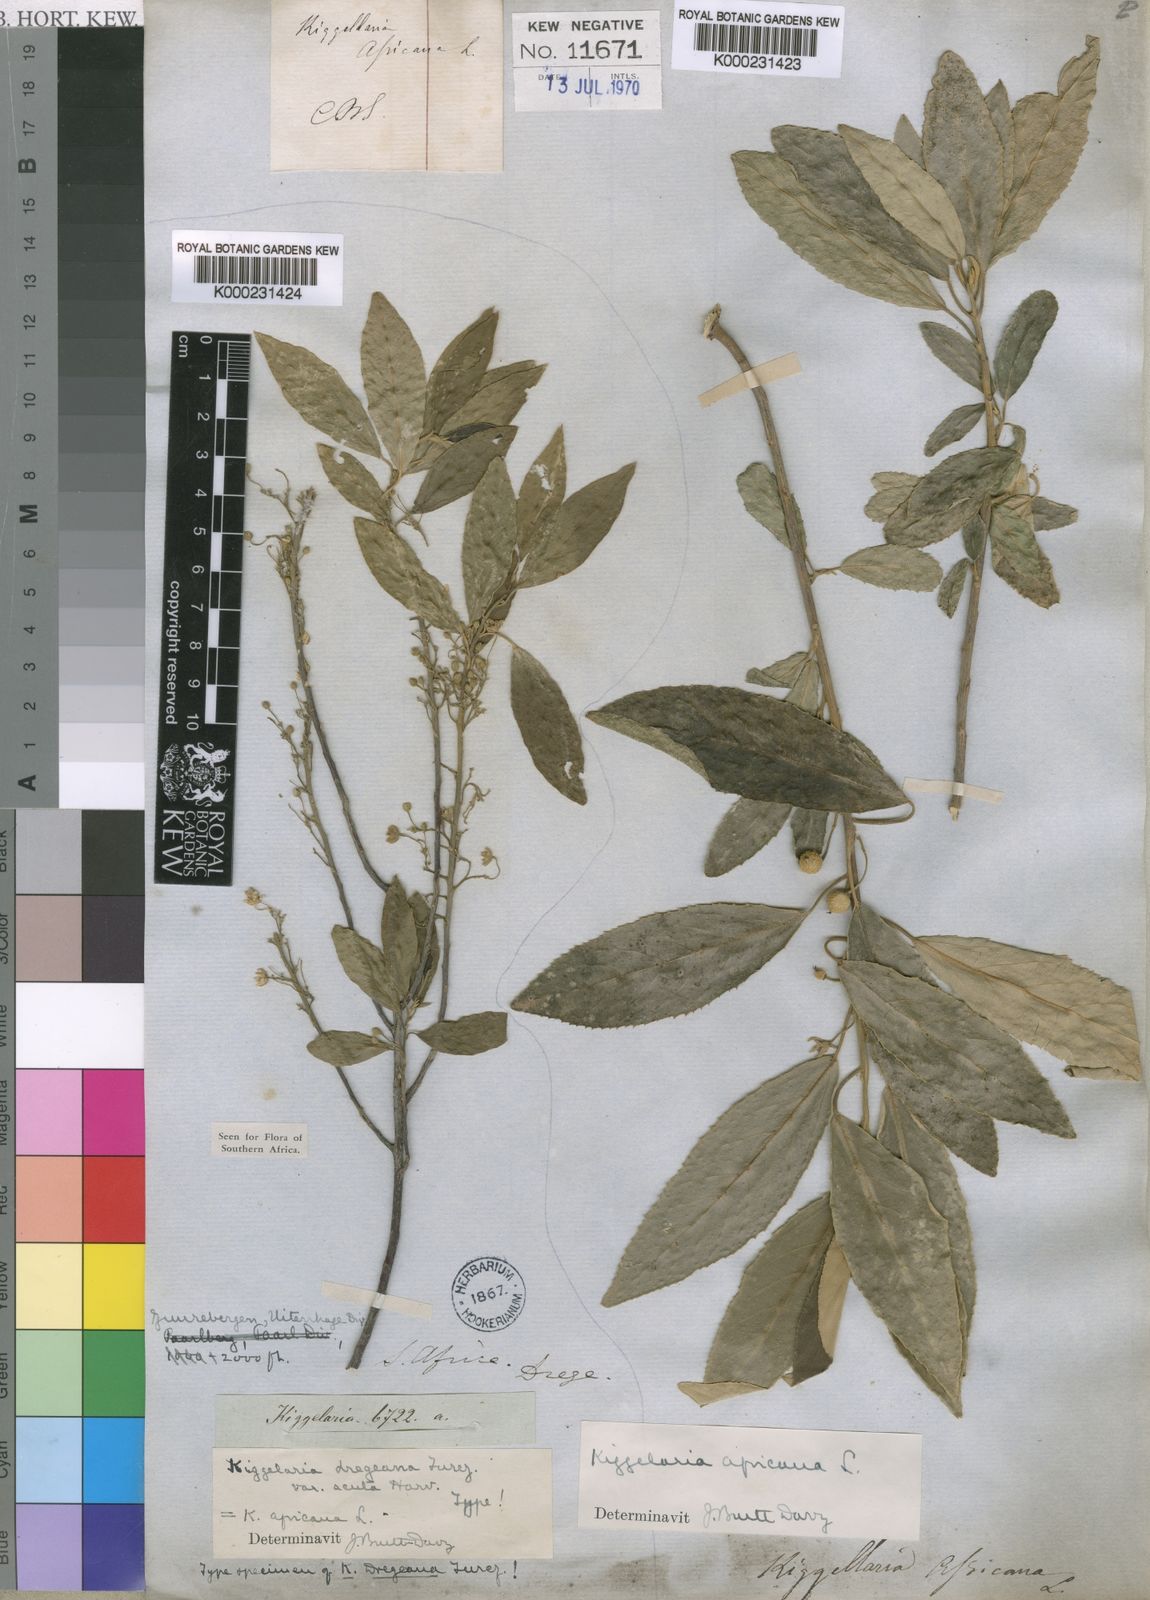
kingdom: Plantae
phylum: Tracheophyta
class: Magnoliopsida
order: Malpighiales
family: Achariaceae
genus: Kiggelaria
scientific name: Kiggelaria africana
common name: Wild peach
